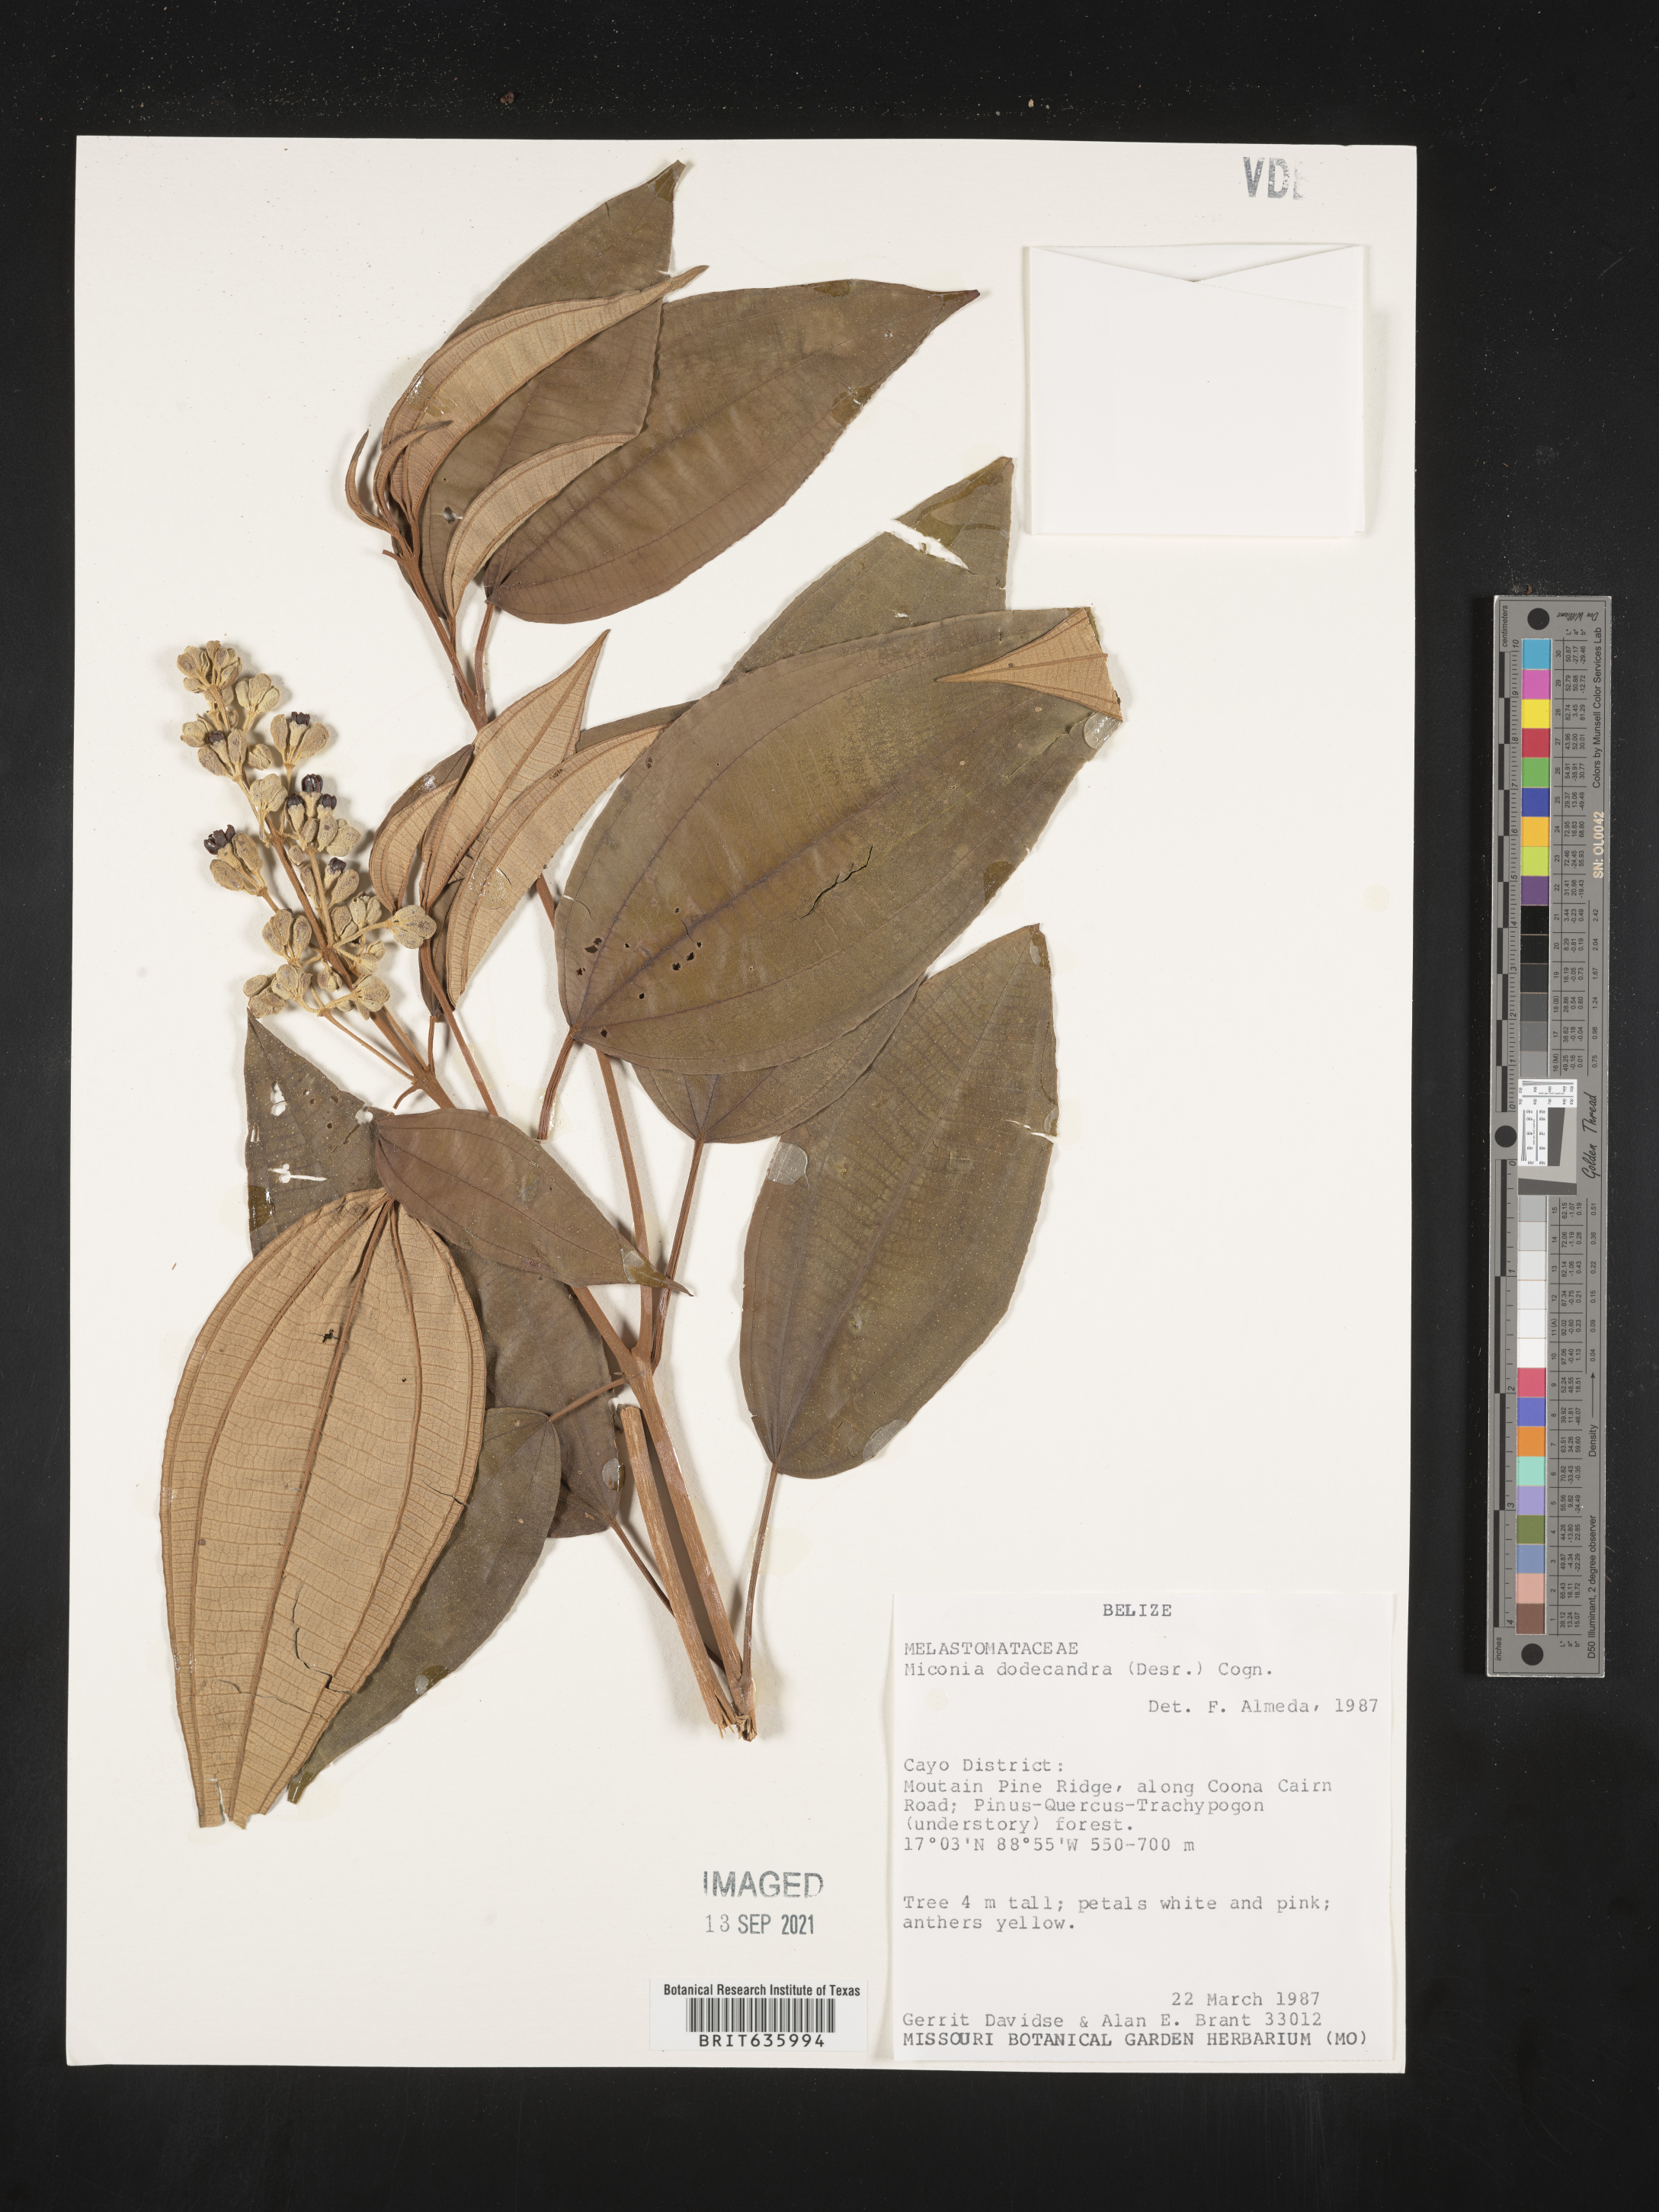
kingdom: Plantae
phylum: Tracheophyta
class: Magnoliopsida
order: Myrtales
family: Melastomataceae
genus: Miconia
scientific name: Miconia
